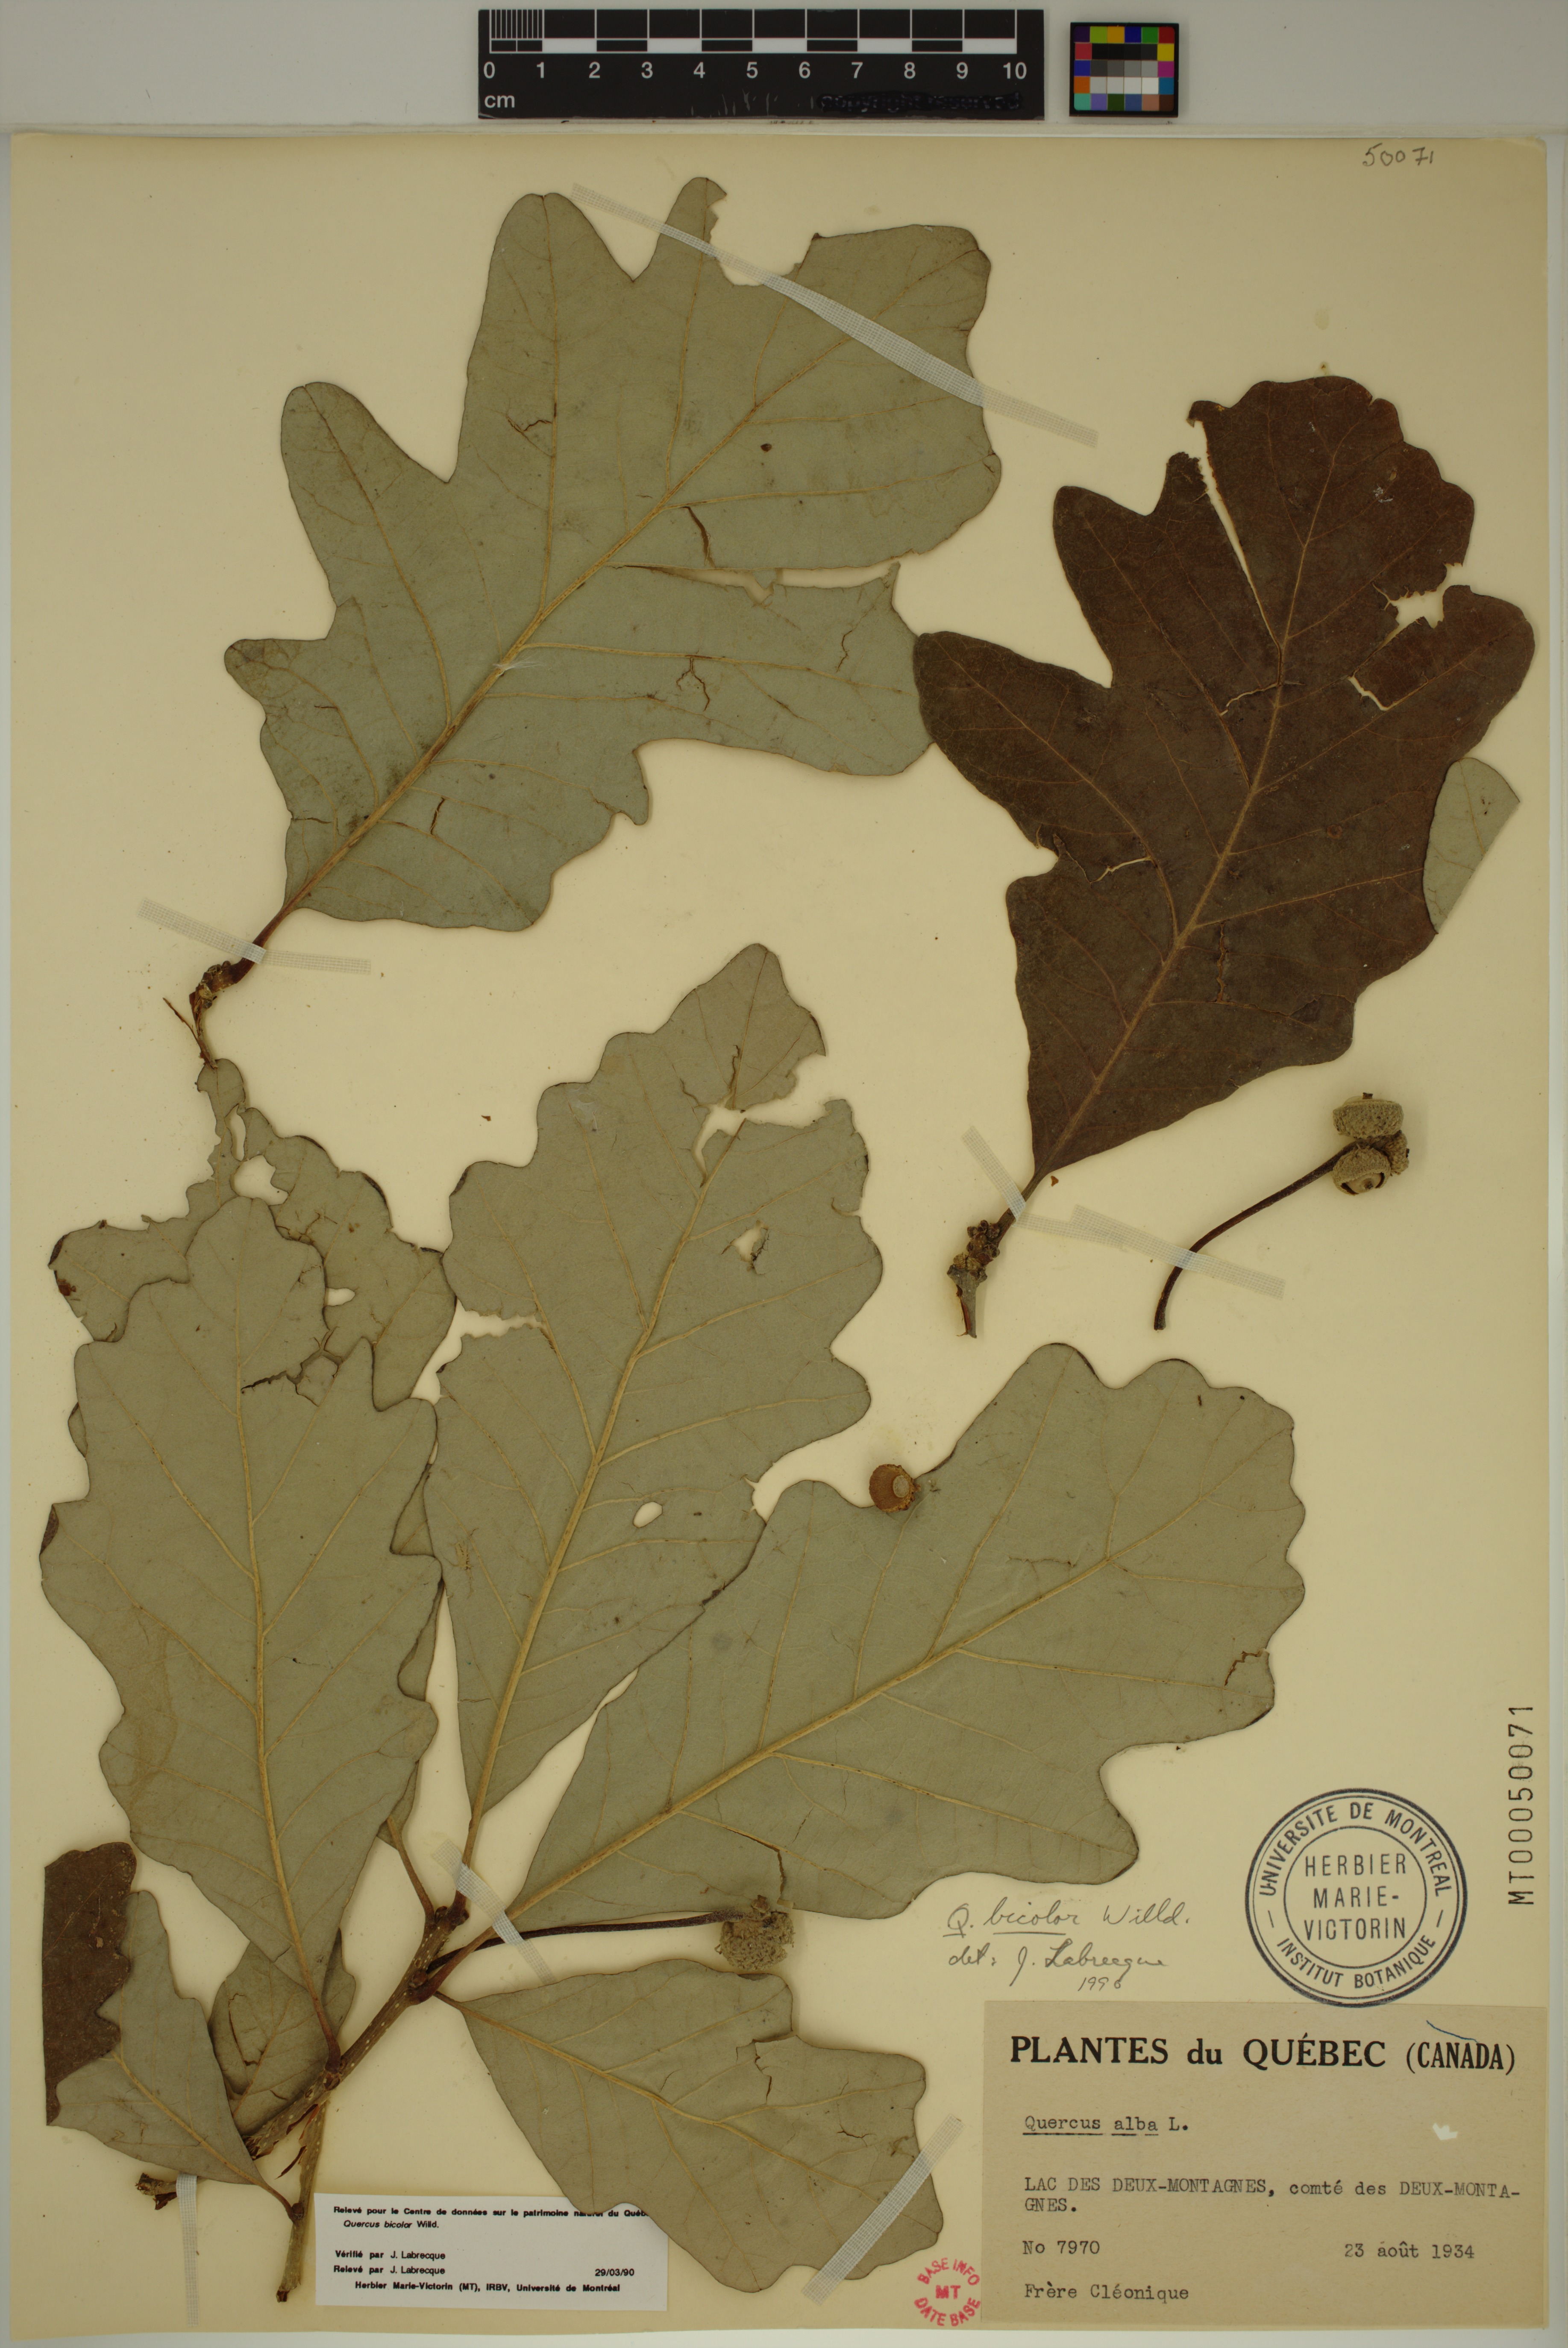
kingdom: Plantae
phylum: Tracheophyta
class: Magnoliopsida
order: Fagales
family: Fagaceae
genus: Quercus
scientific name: Quercus bicolor
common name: Swamp white oak
